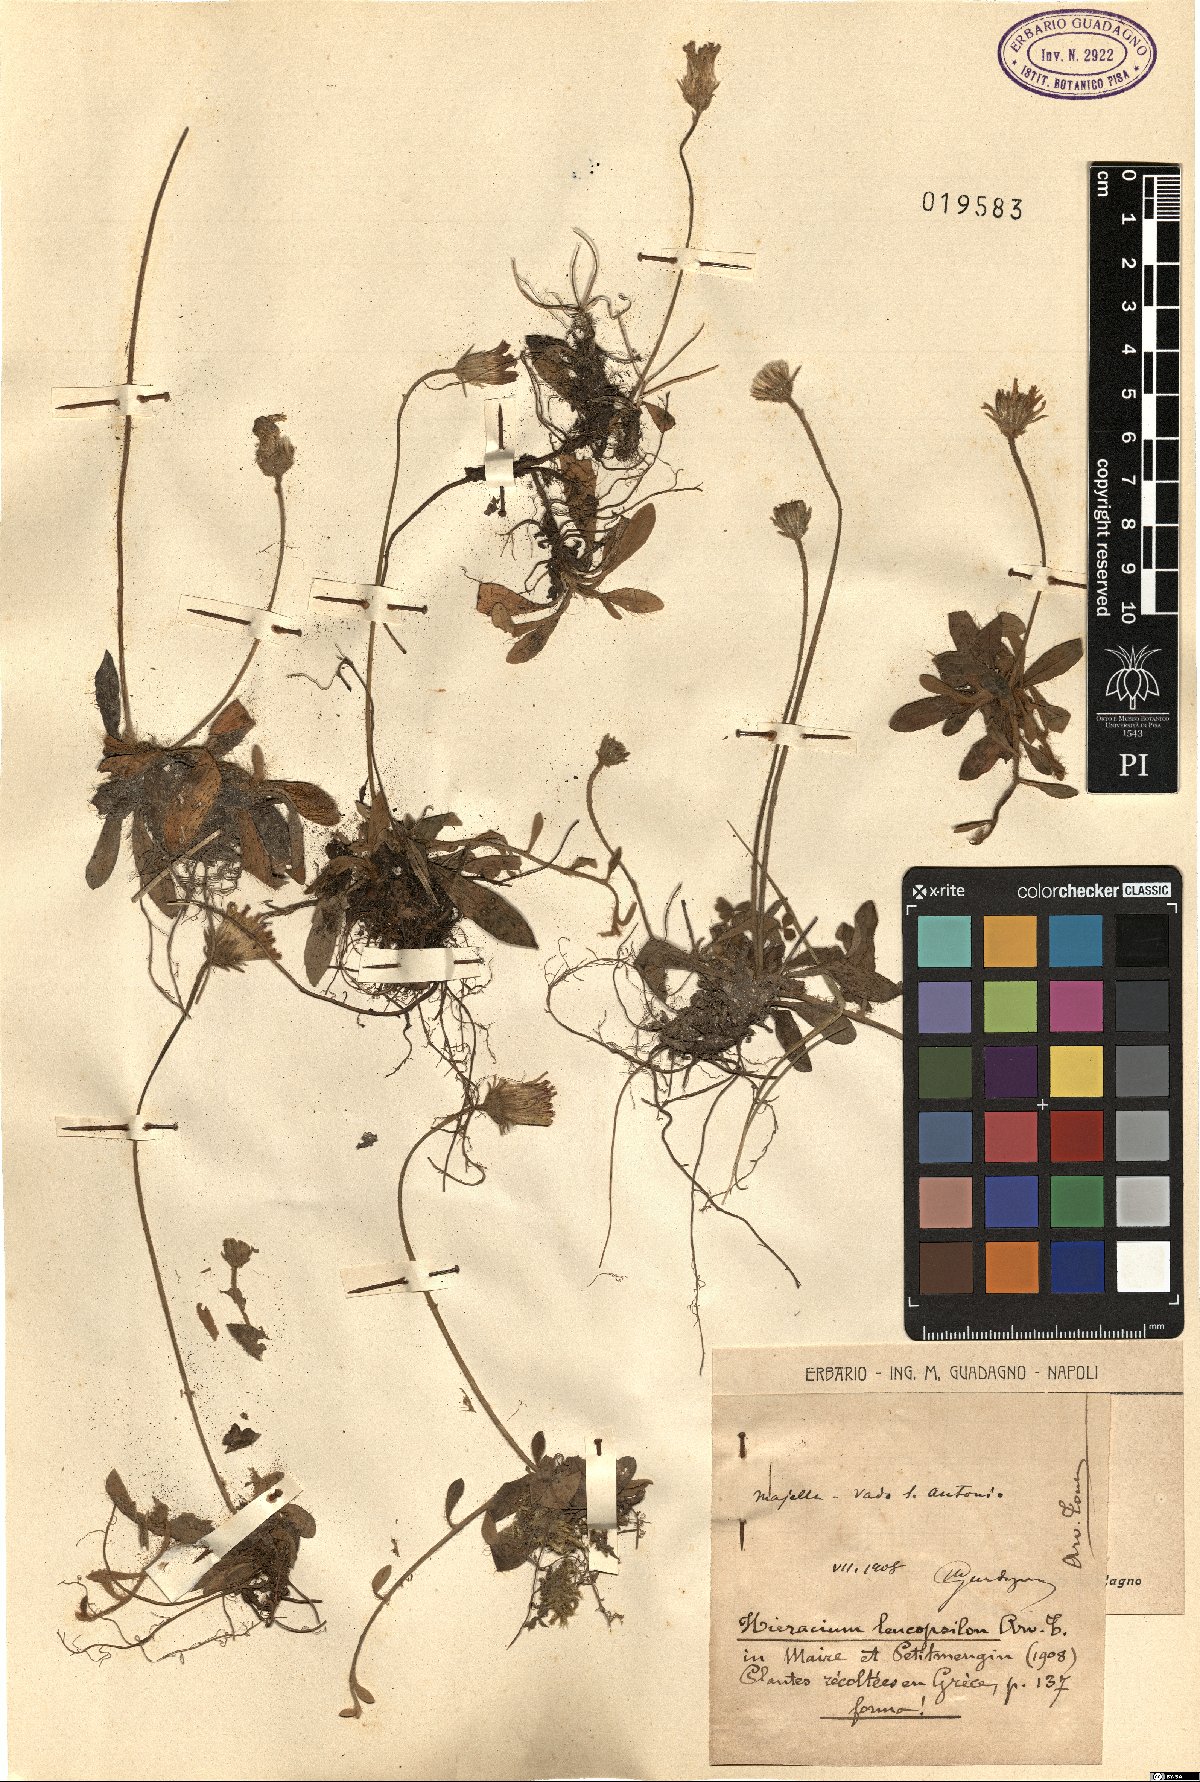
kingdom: Plantae
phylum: Tracheophyta
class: Magnoliopsida
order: Asterales
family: Asteraceae
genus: Pilosella
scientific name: Pilosella leucopsilon
